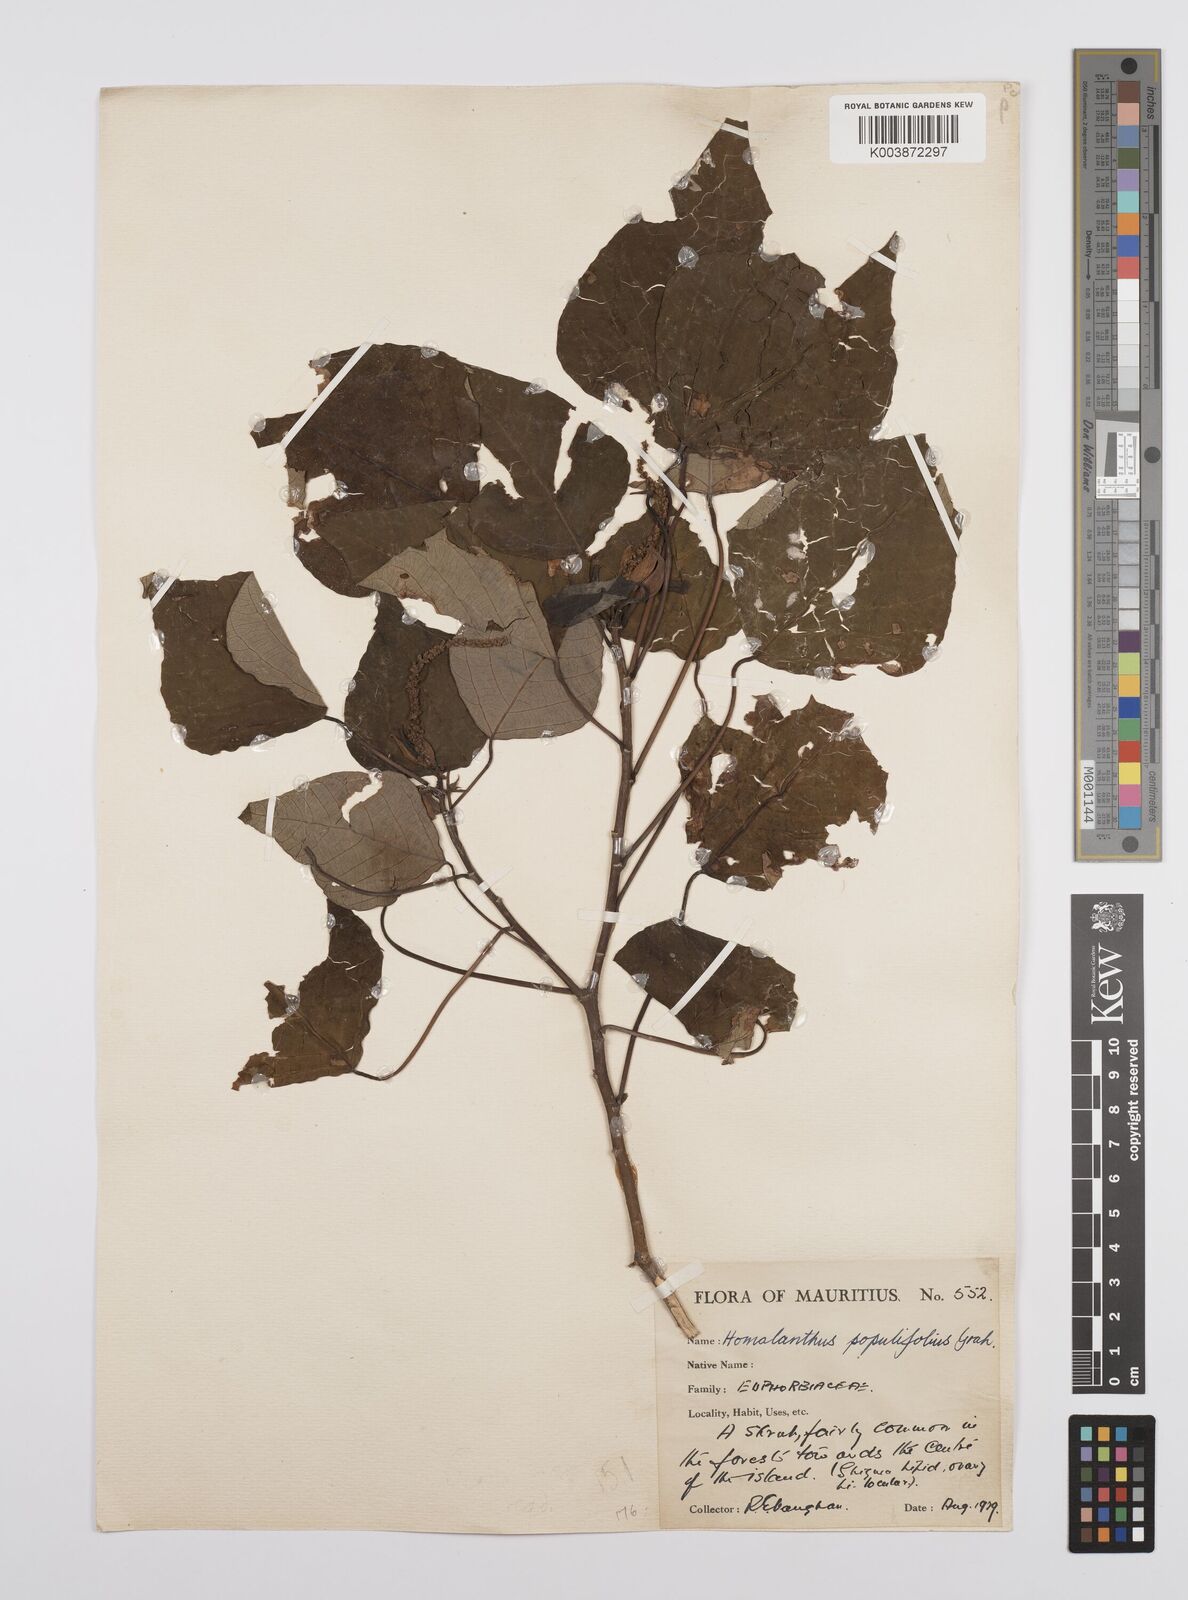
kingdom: Plantae
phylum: Tracheophyta
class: Magnoliopsida
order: Malpighiales
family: Euphorbiaceae
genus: Homalanthus
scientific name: Homalanthus populifolius
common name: Queensland poplar
